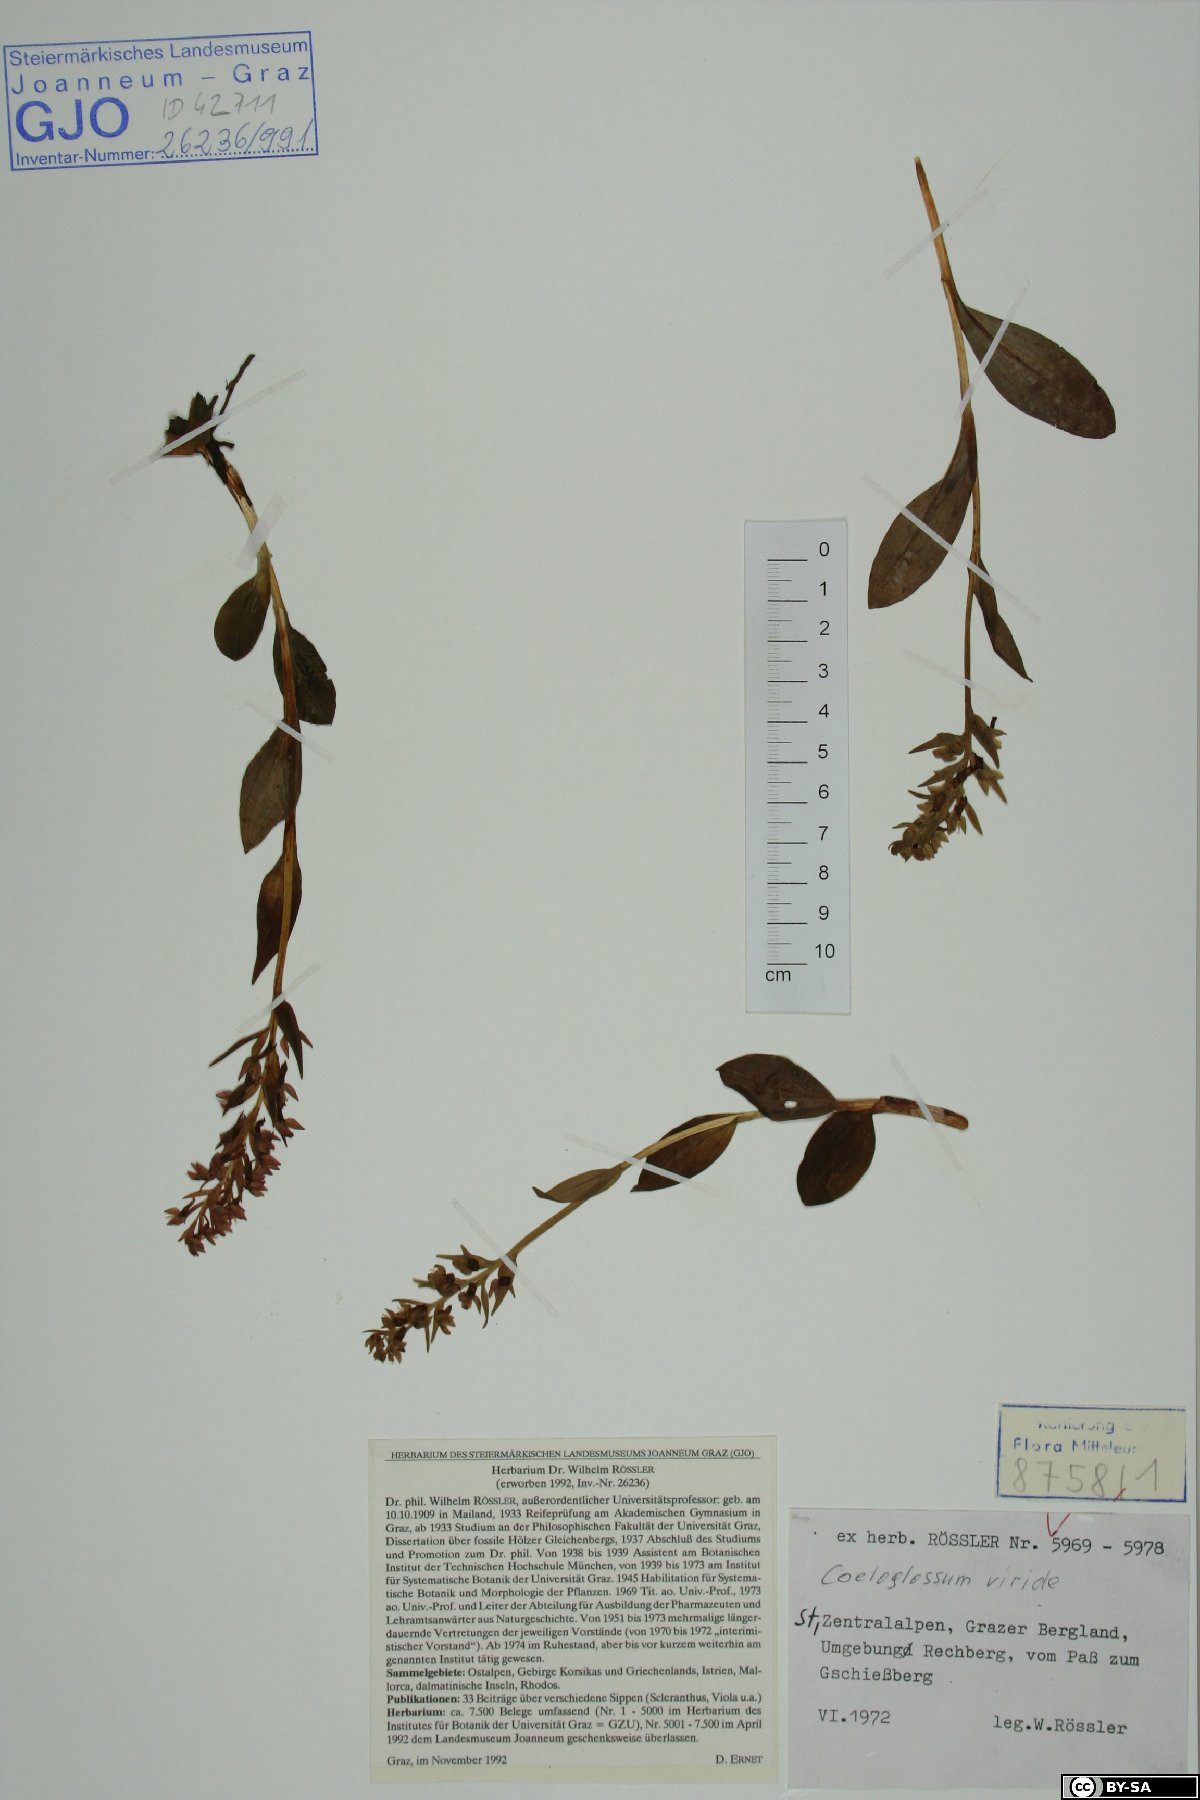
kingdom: Plantae
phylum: Tracheophyta
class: Liliopsida
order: Asparagales
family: Orchidaceae
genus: Dactylorhiza
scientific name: Dactylorhiza viridis
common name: Longbract frog orchid
